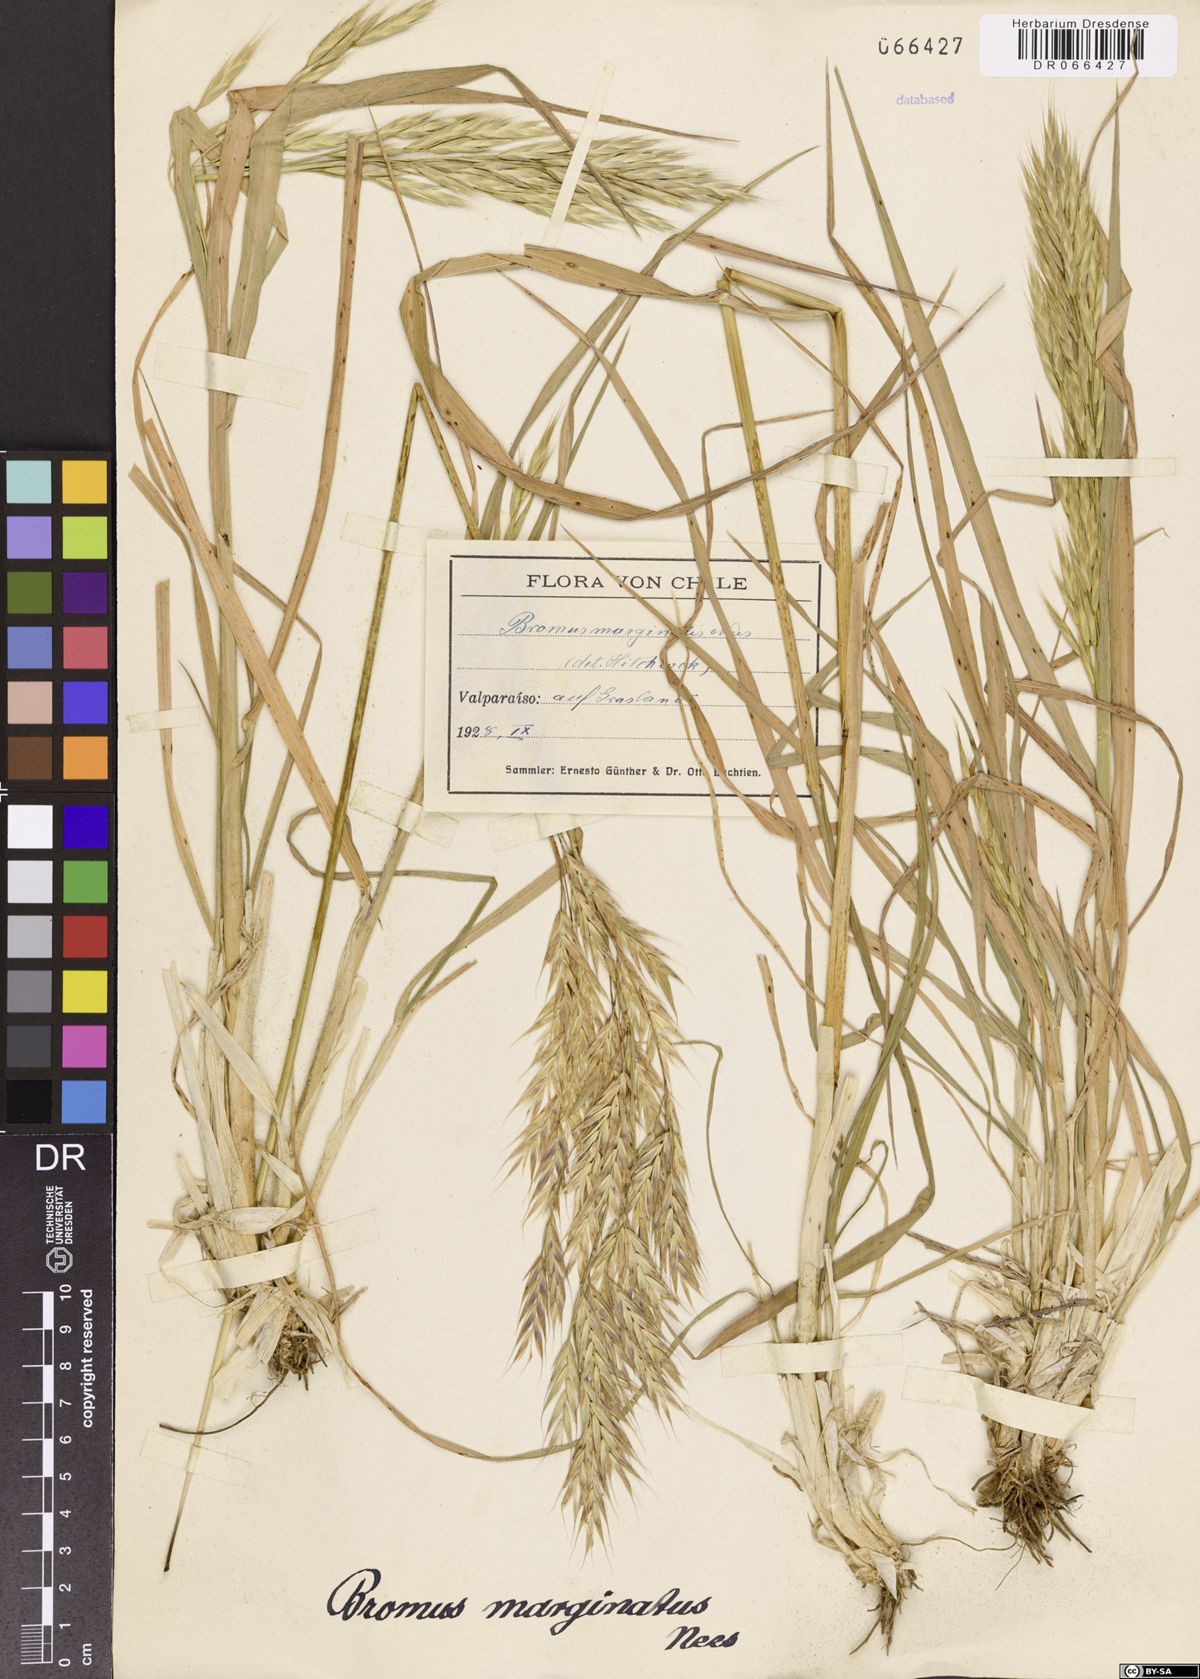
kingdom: Plantae
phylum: Tracheophyta
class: Liliopsida
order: Poales
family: Poaceae
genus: Bromus
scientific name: Bromus marginatus
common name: Western brome
